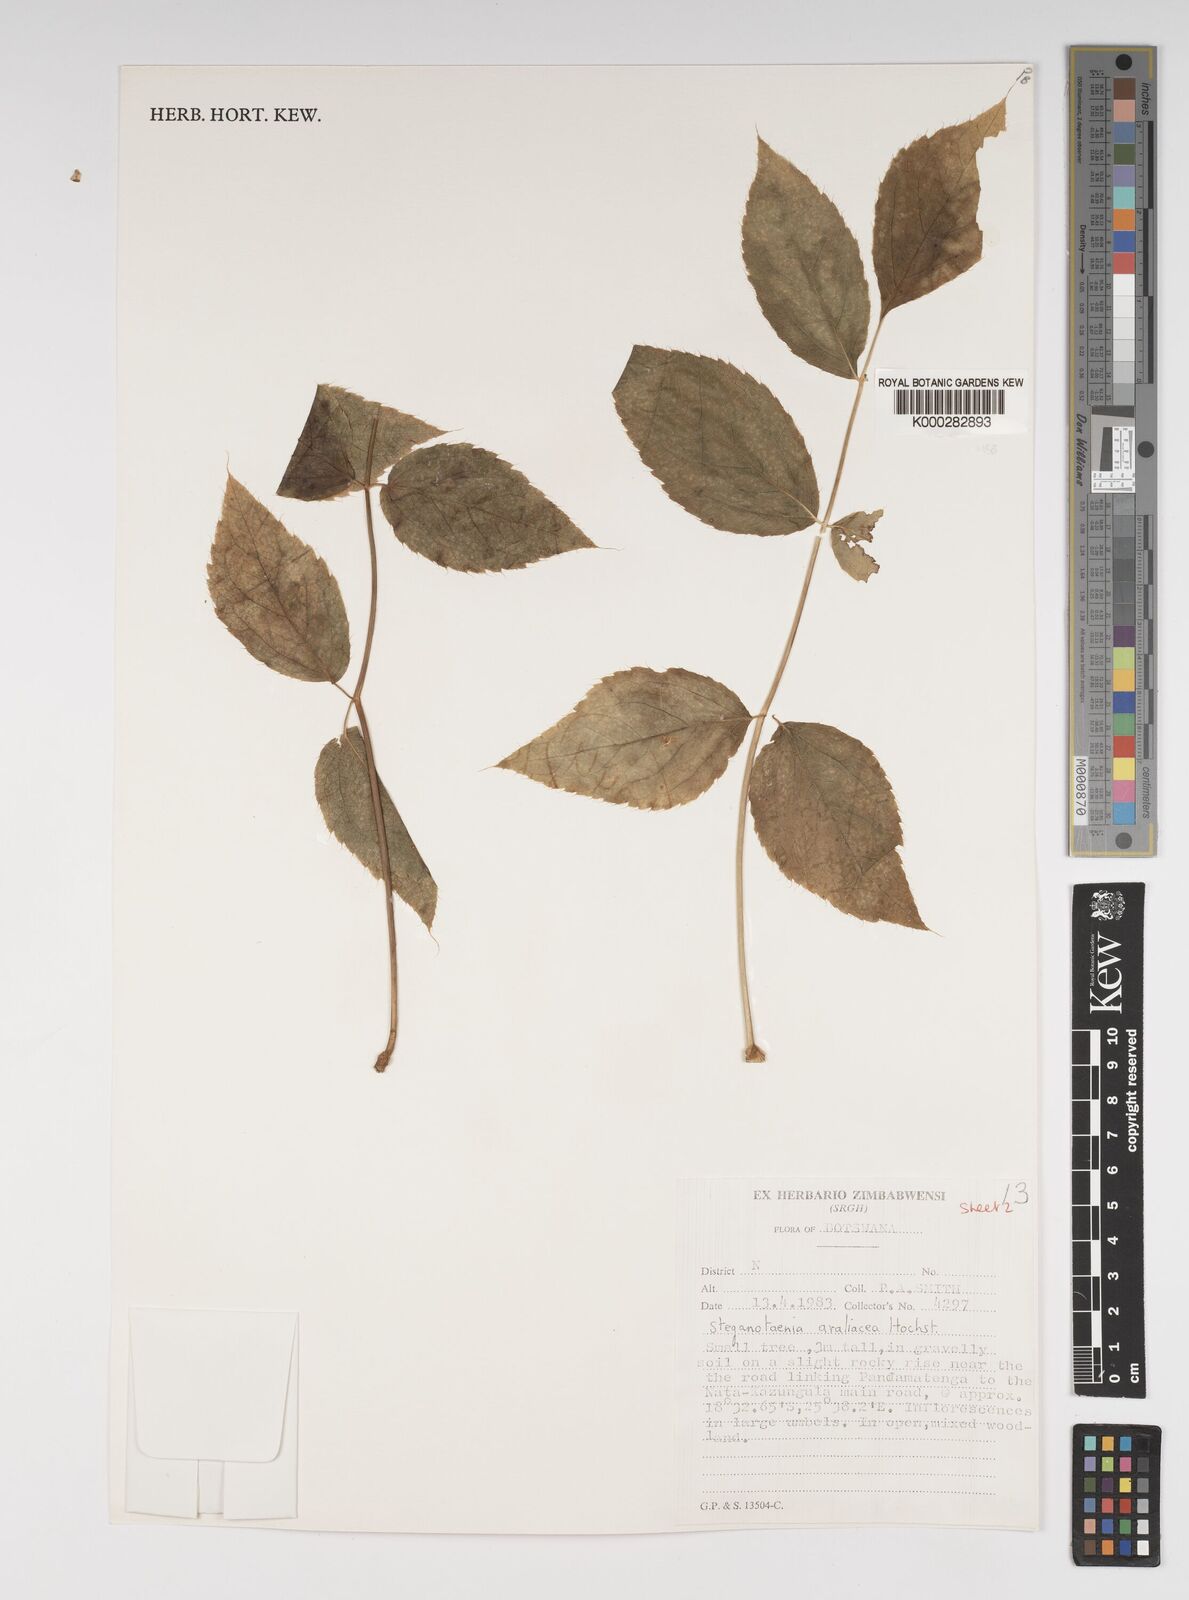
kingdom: Plantae
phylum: Tracheophyta
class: Magnoliopsida
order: Apiales
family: Apiaceae
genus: Steganotaenia
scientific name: Steganotaenia araliacea
